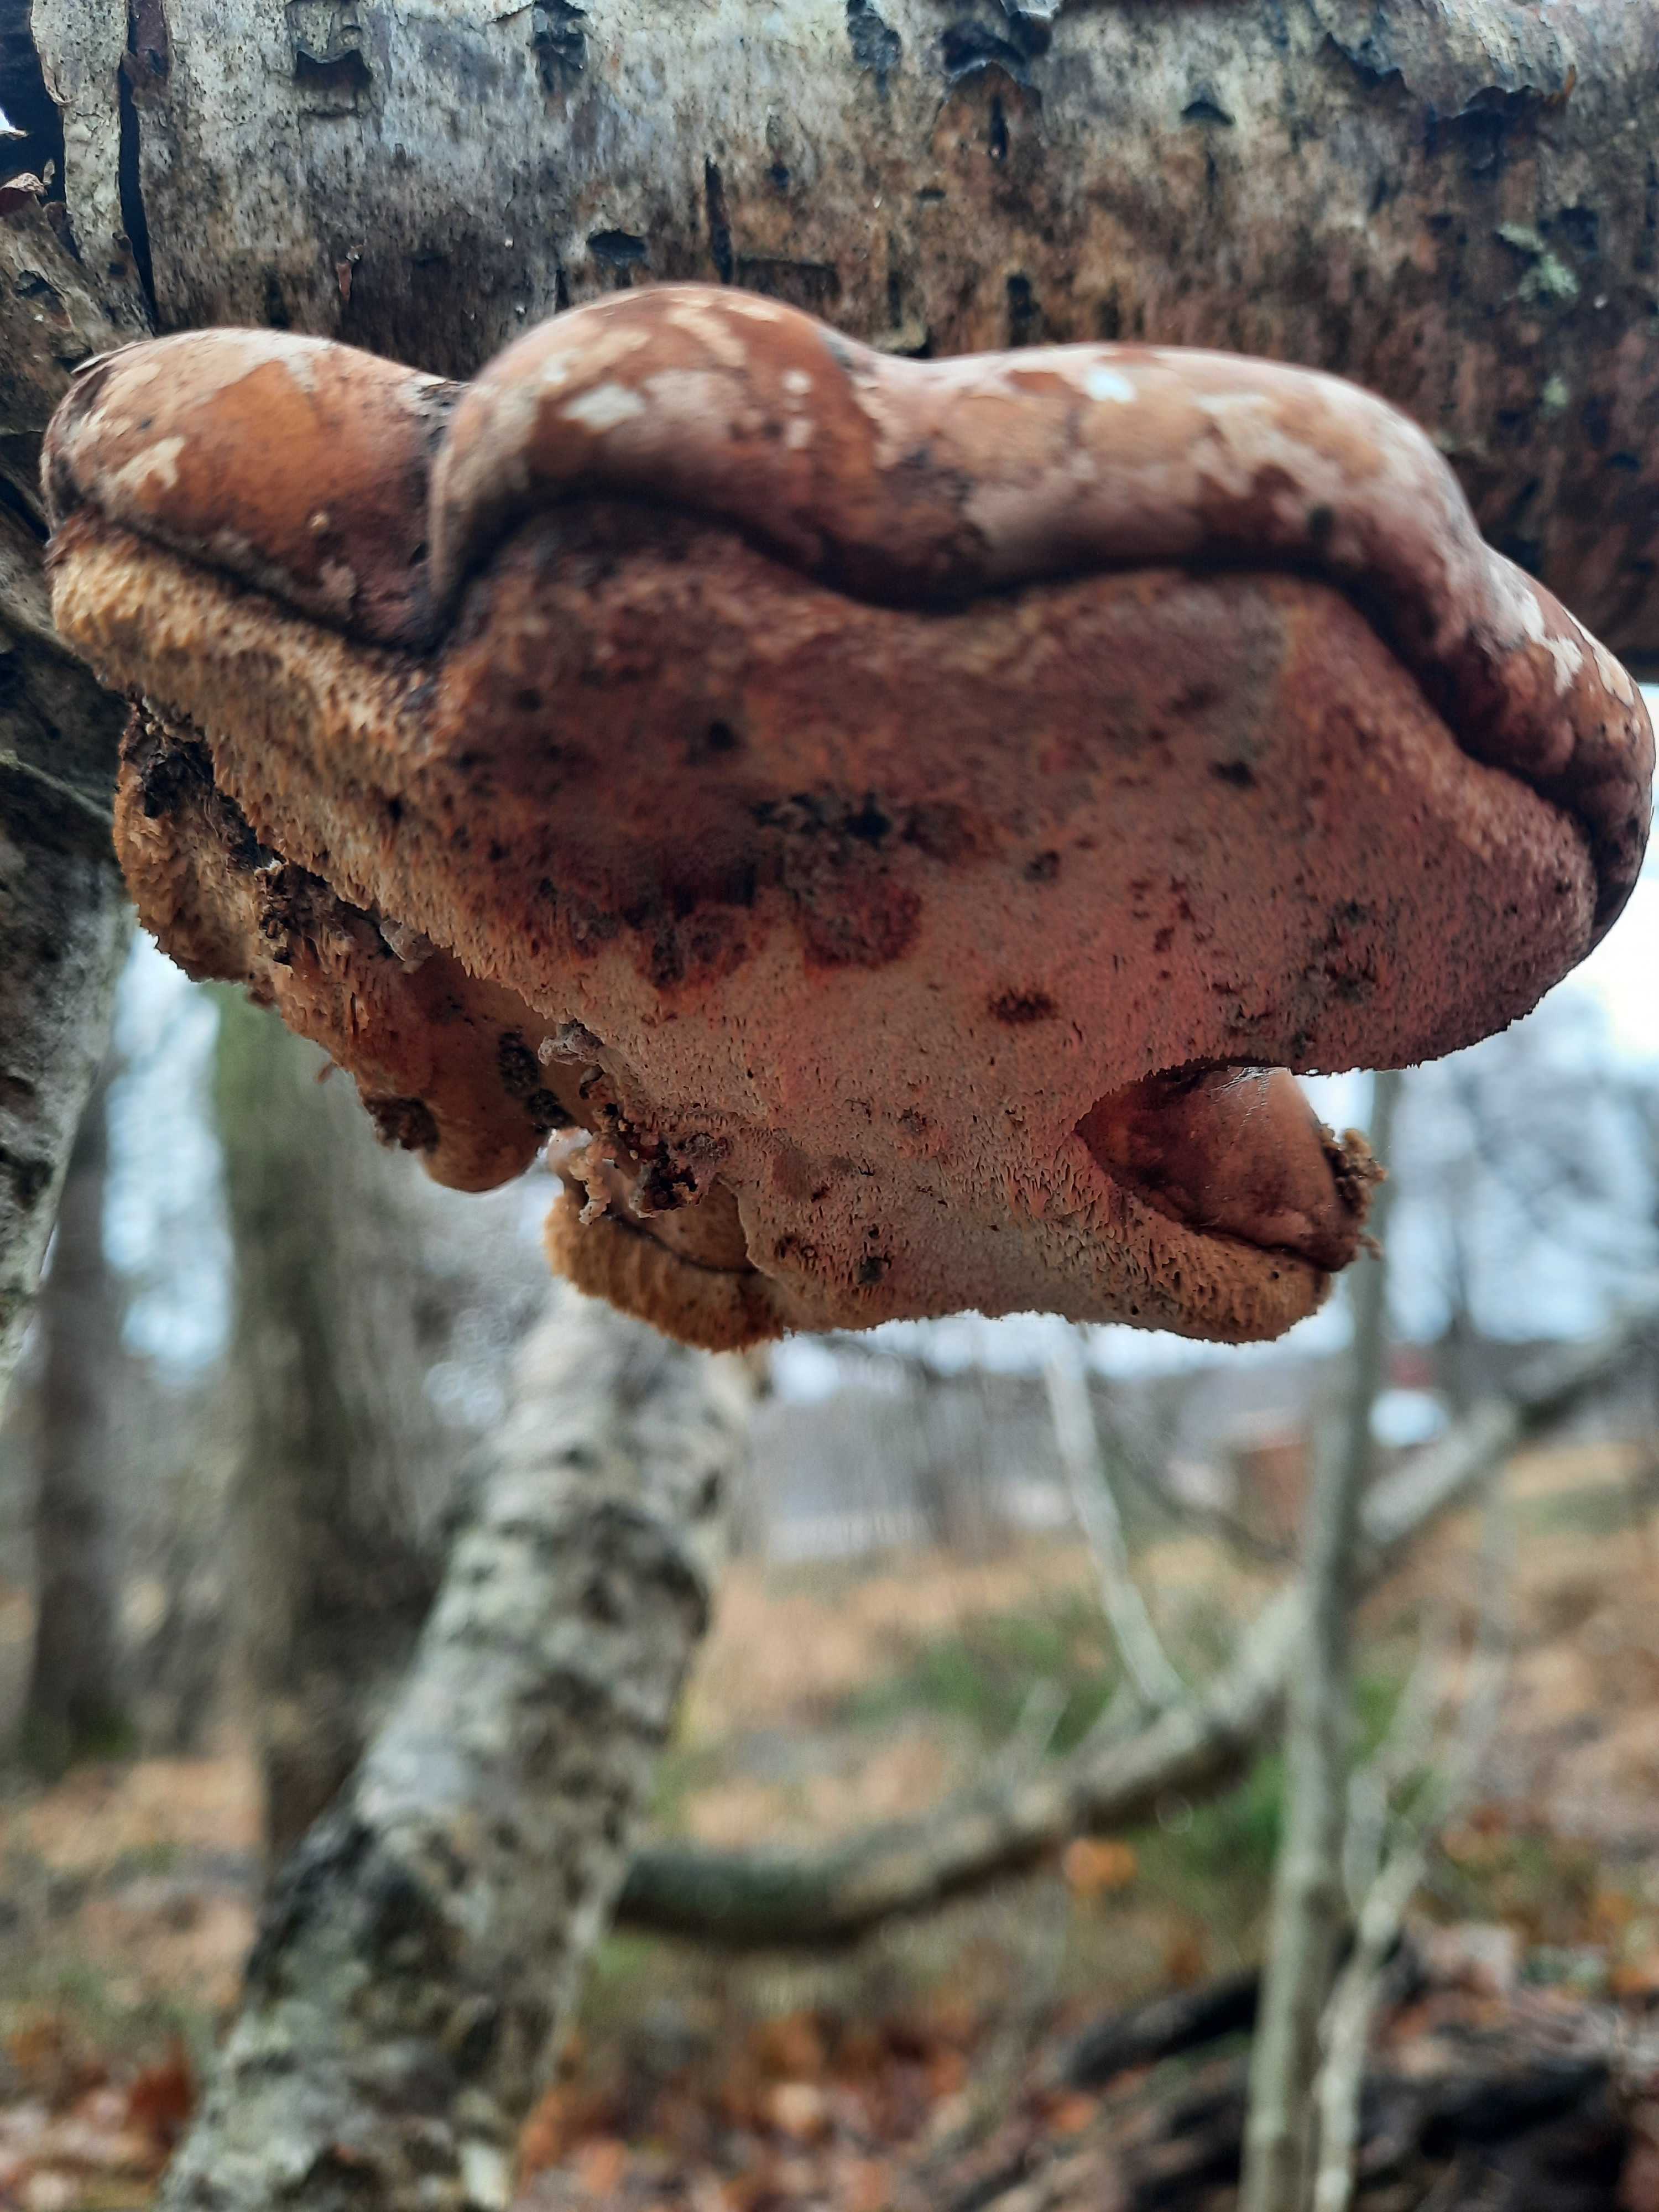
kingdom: Fungi
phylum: Basidiomycota
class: Agaricomycetes
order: Polyporales
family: Fomitopsidaceae
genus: Fomitopsis
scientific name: Fomitopsis betulina
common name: birkeporesvamp
